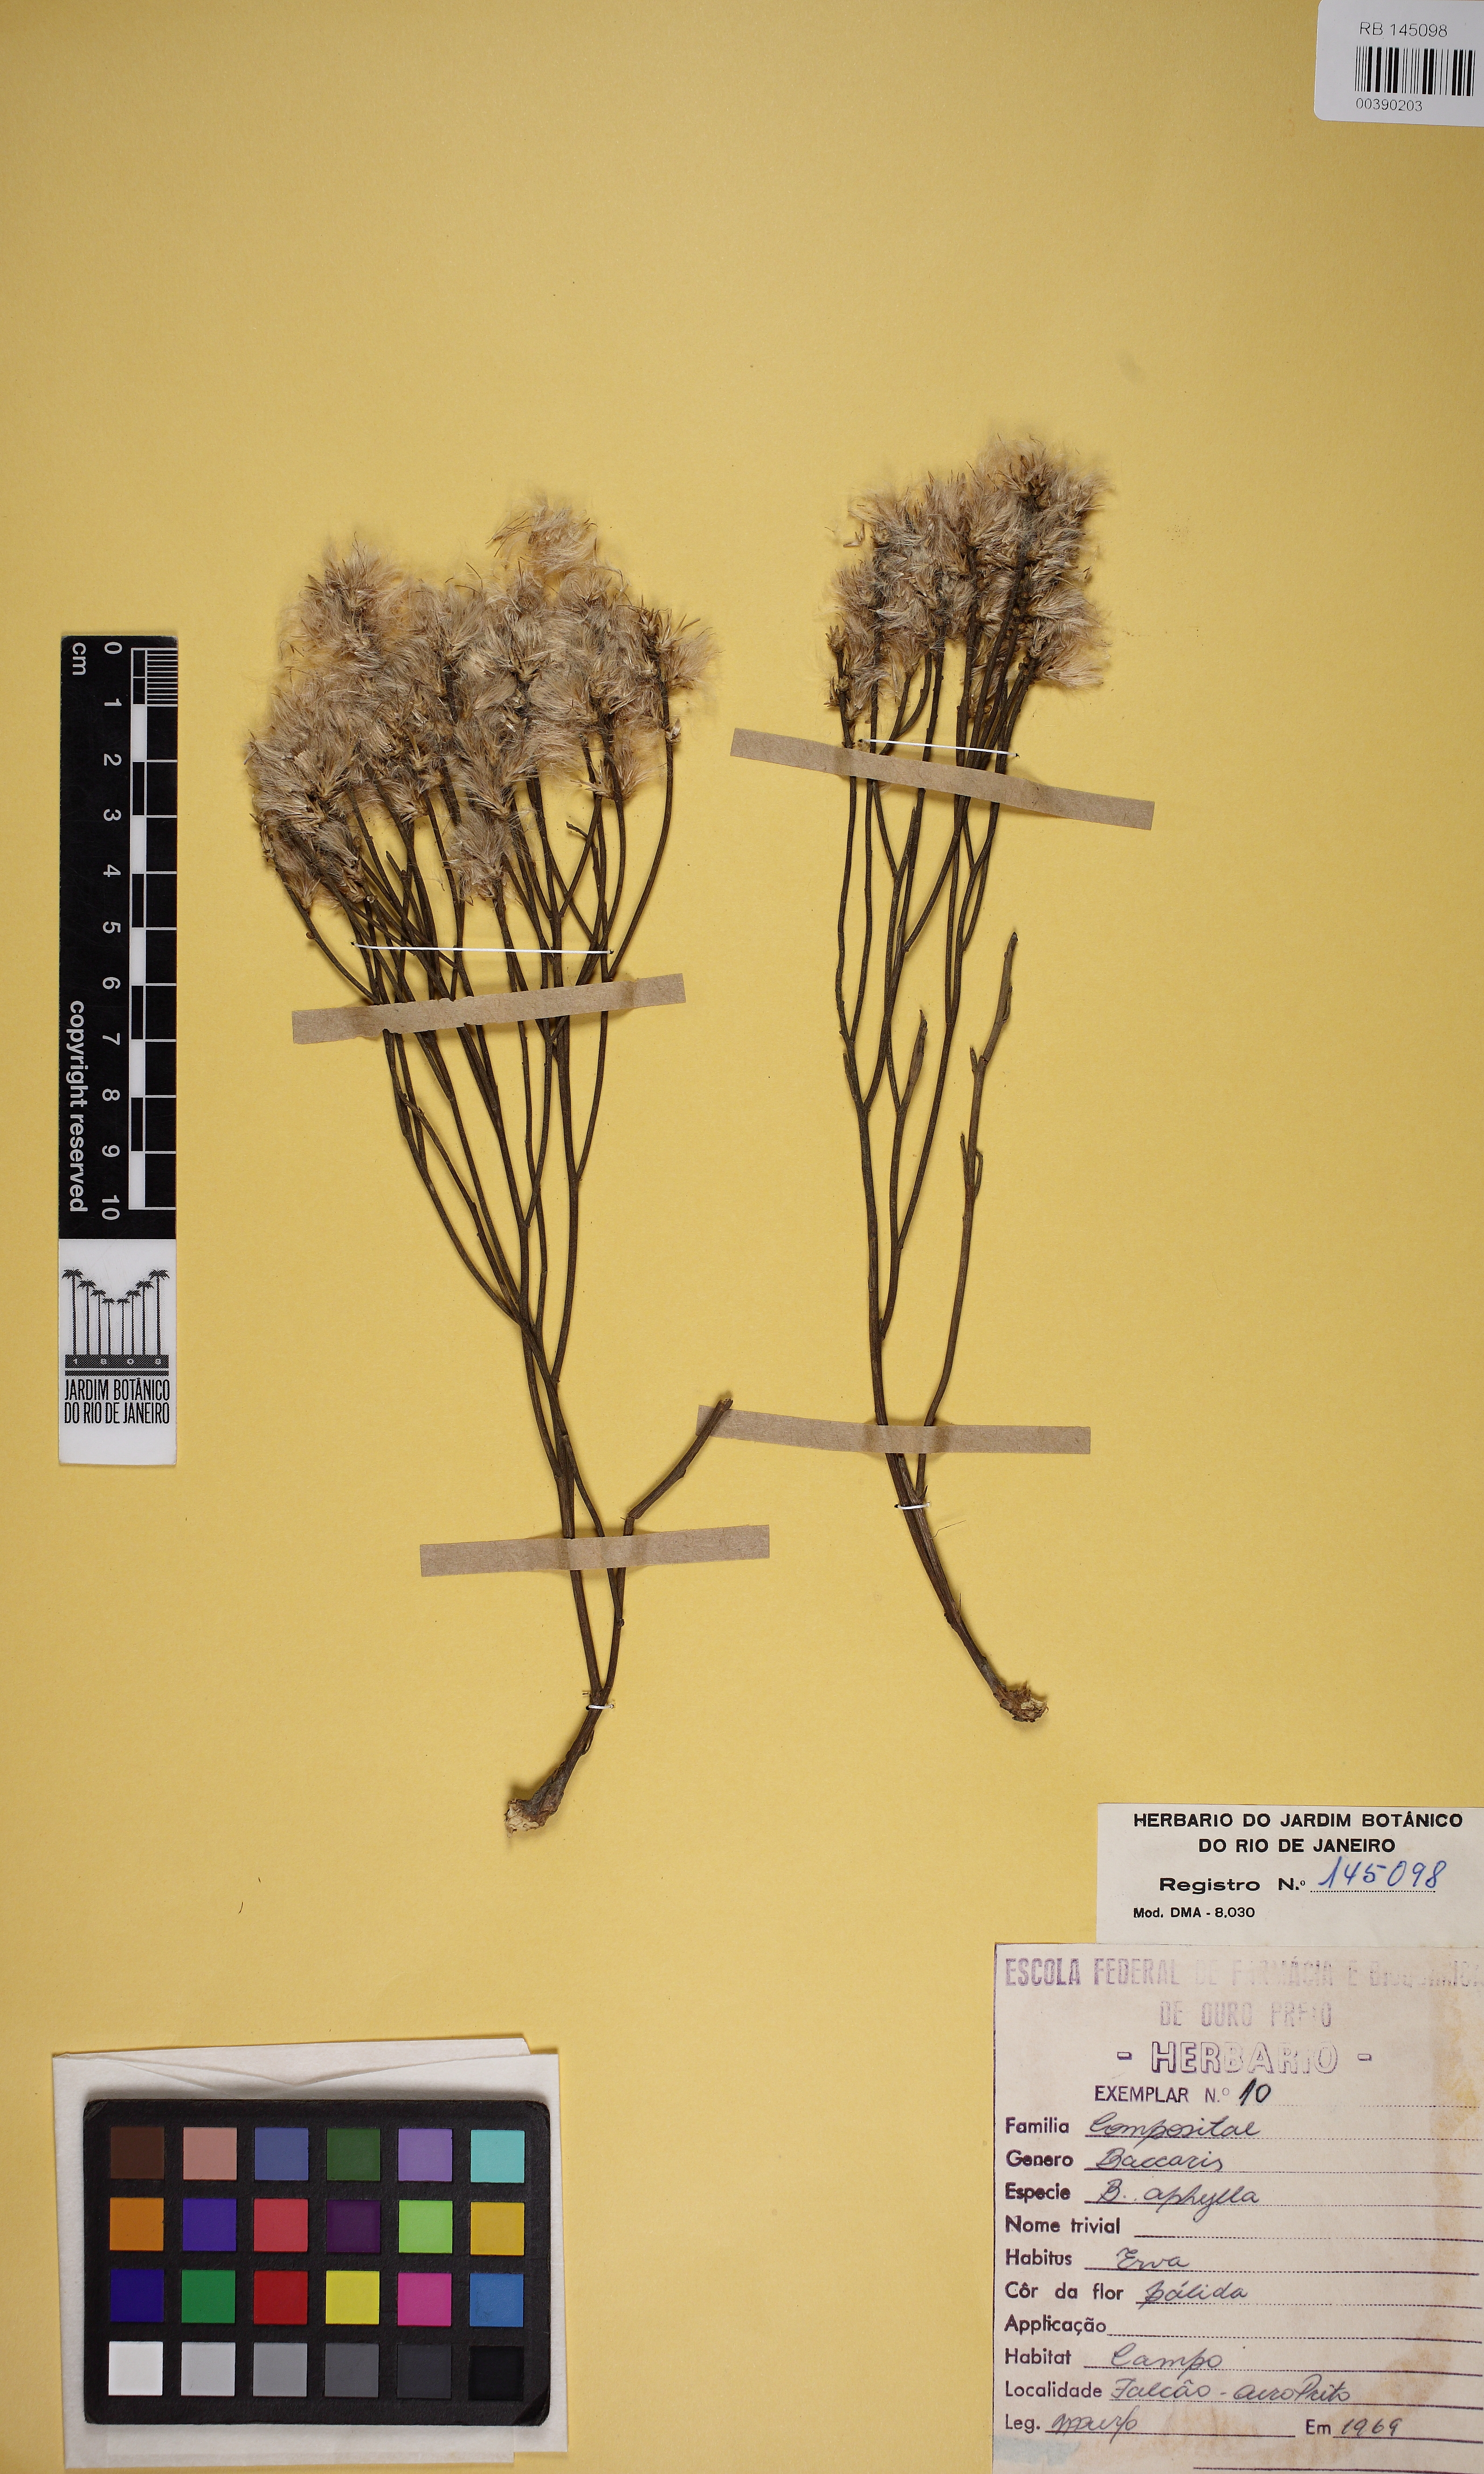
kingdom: Plantae
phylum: Tracheophyta
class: Magnoliopsida
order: Asterales
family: Asteraceae
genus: Baccharis
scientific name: Baccharis aphylla
